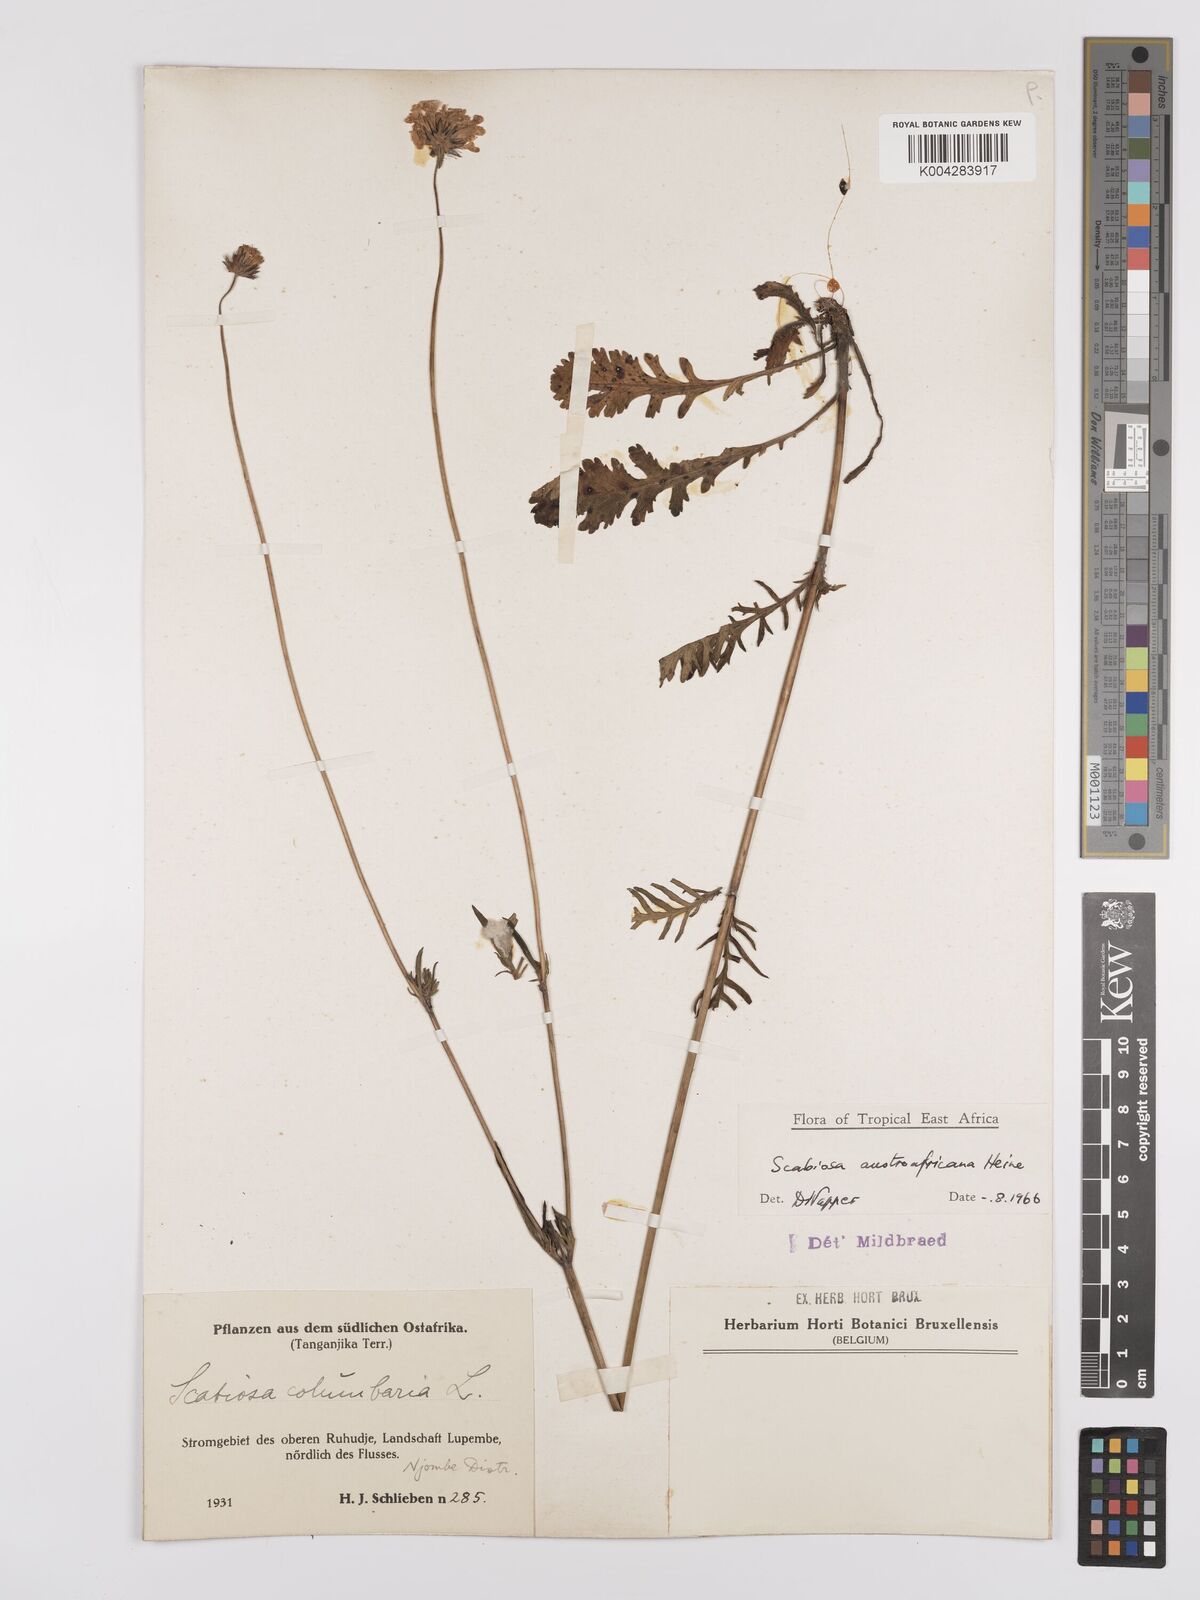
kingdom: Plantae
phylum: Tracheophyta
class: Magnoliopsida
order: Dipsacales
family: Caprifoliaceae
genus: Scabiosa
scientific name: Scabiosa austroafricana
